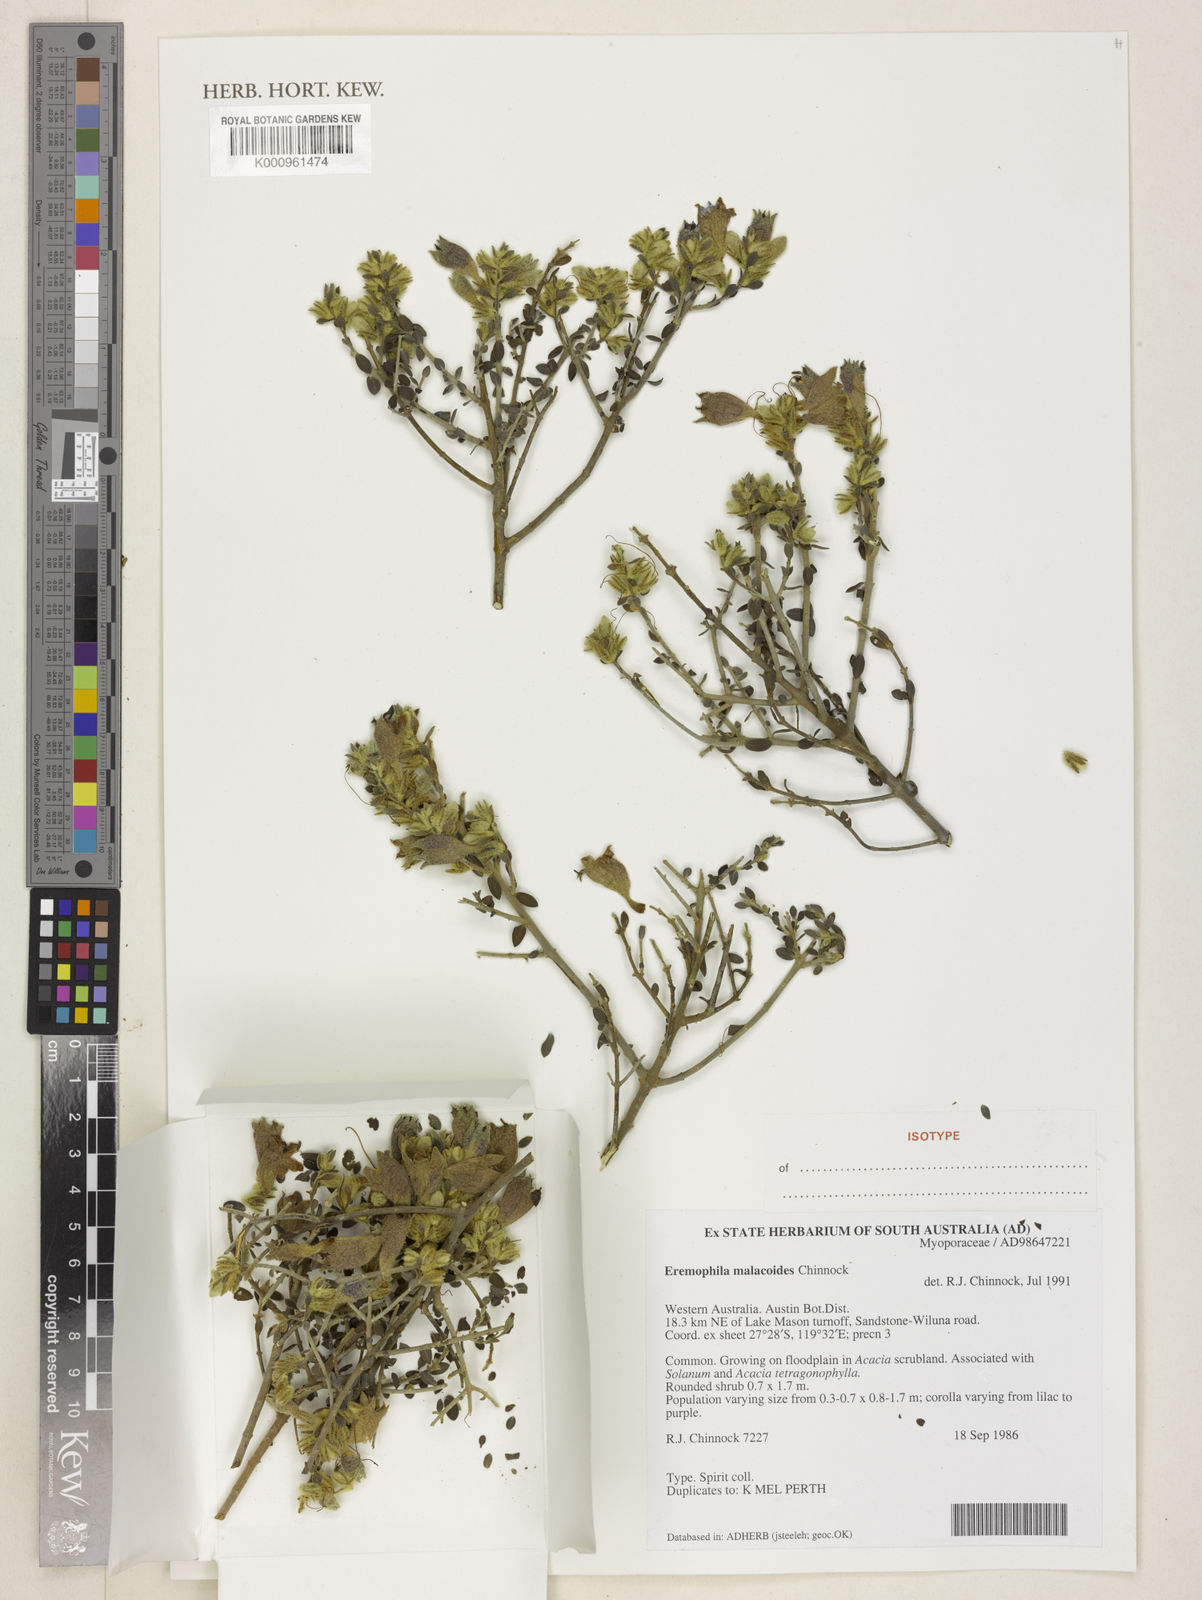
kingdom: Plantae
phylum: Tracheophyta
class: Magnoliopsida
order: Lamiales
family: Scrophulariaceae
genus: Eremophila
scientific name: Eremophila malacoides
